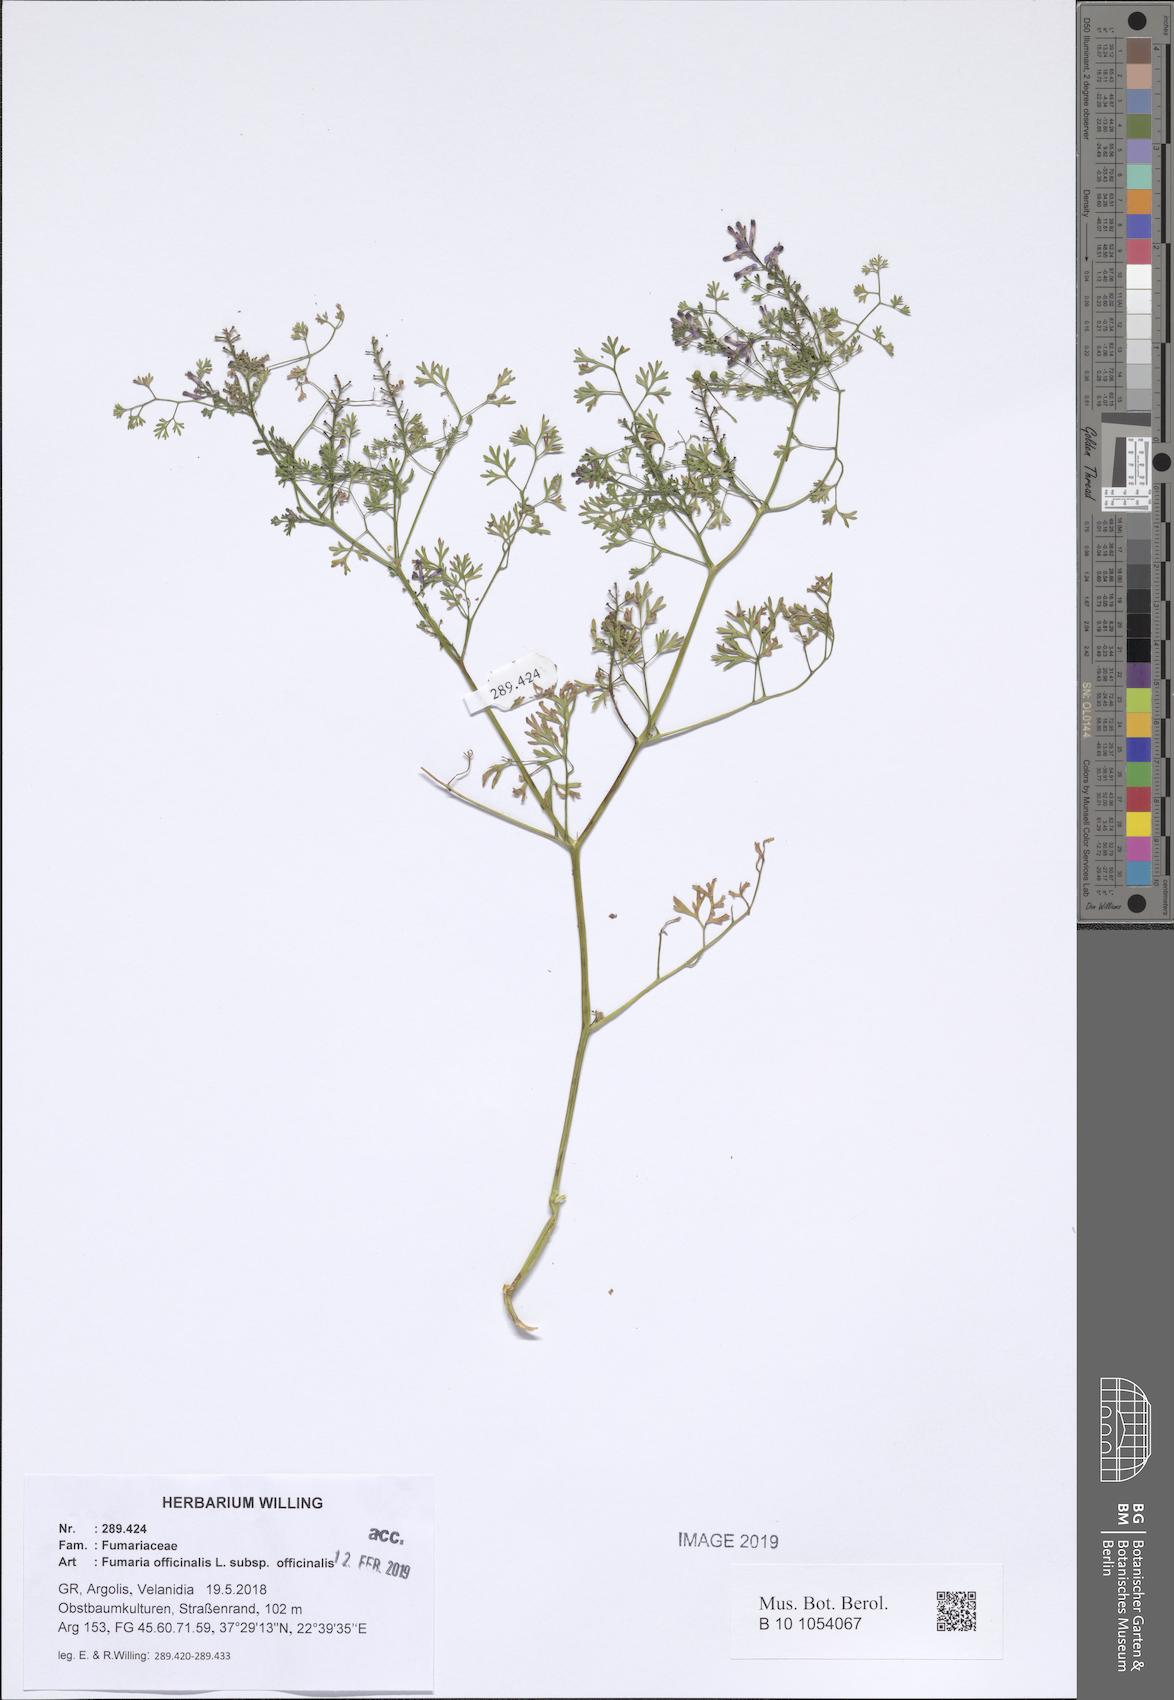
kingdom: Plantae
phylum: Tracheophyta
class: Magnoliopsida
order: Ranunculales
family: Papaveraceae
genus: Fumaria
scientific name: Fumaria officinalis
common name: Common fumitory
